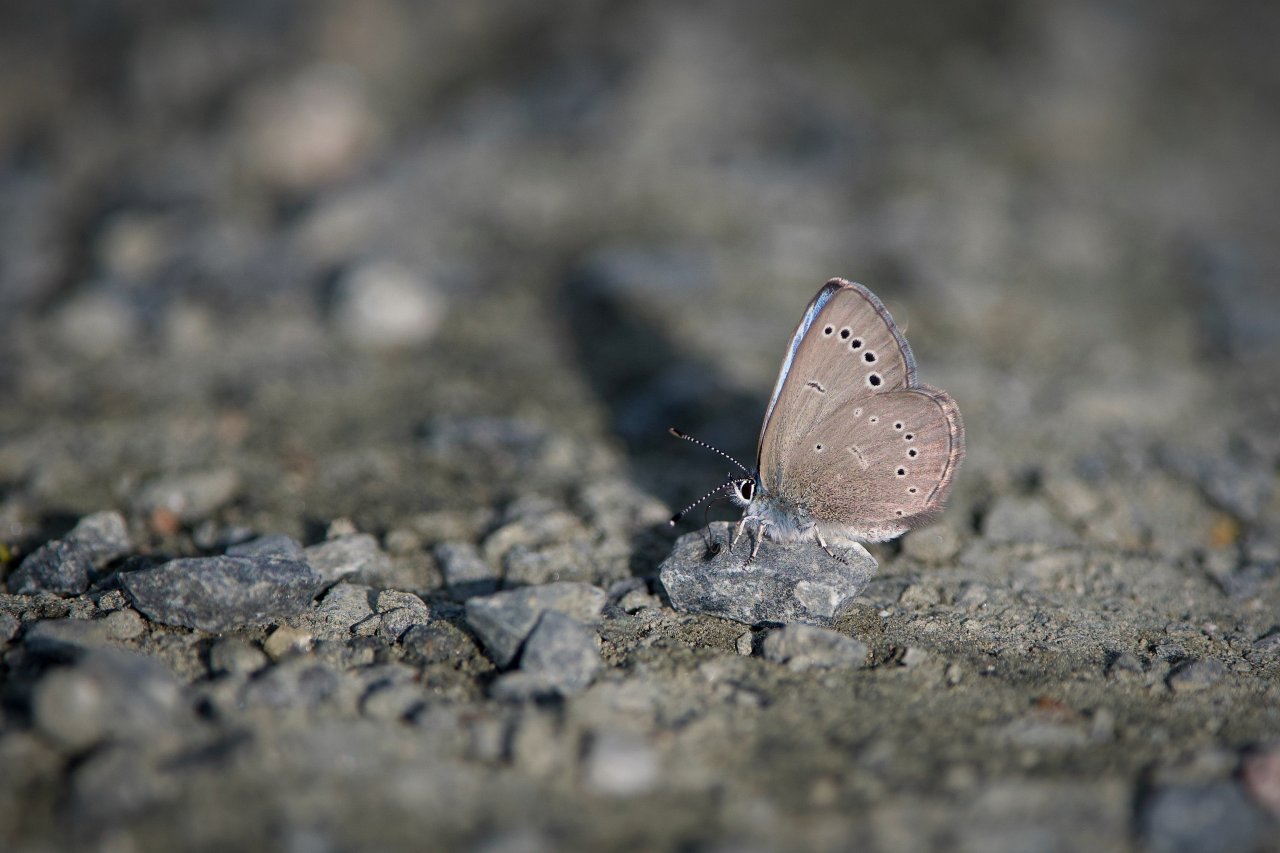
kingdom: Animalia
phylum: Arthropoda
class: Insecta
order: Lepidoptera
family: Lycaenidae
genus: Glaucopsyche
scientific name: Glaucopsyche lygdamus
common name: Silvery Blue
